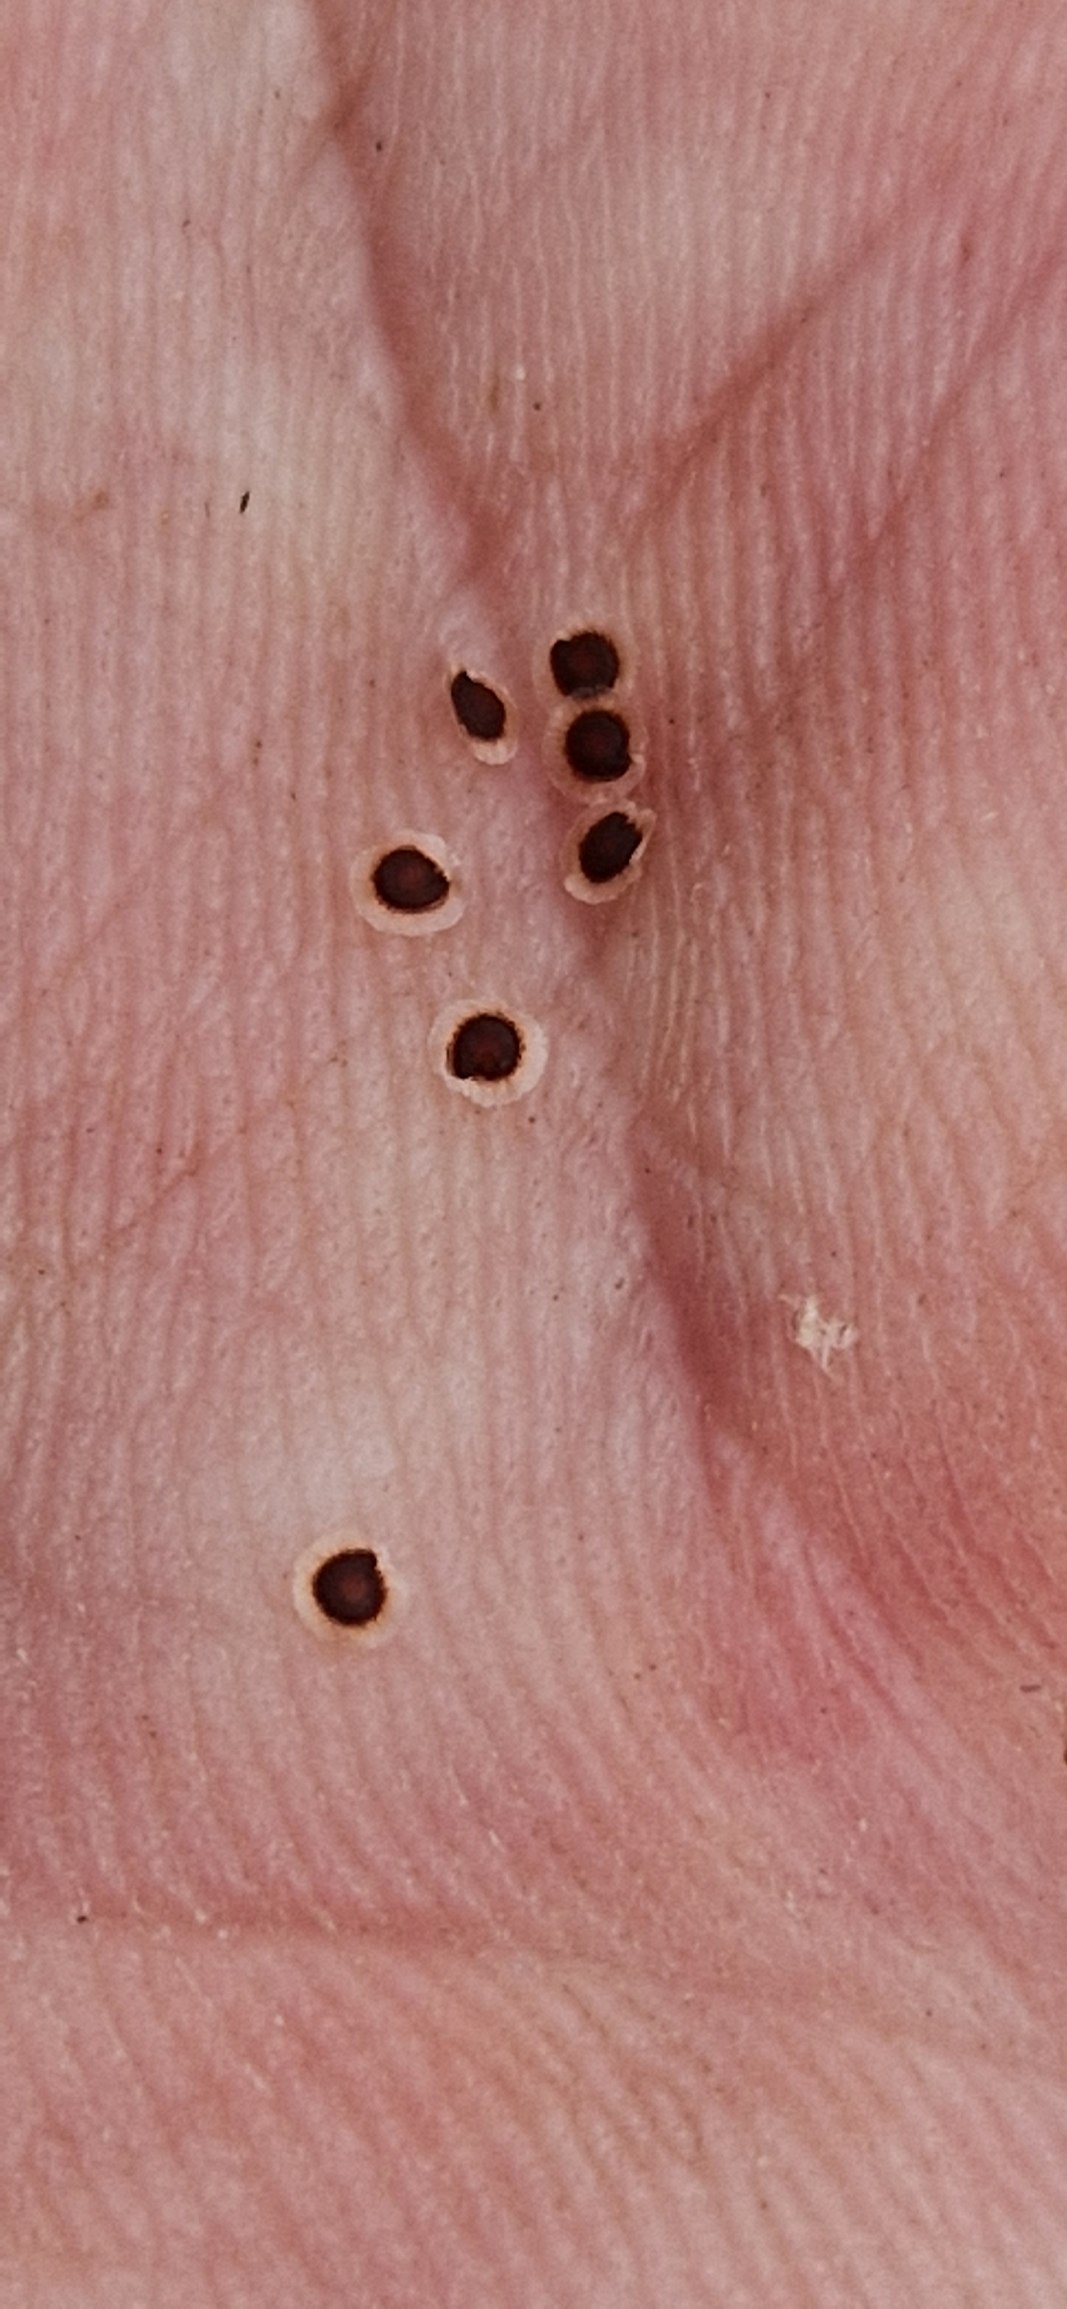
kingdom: Plantae
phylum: Tracheophyta
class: Magnoliopsida
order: Caryophyllales
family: Caryophyllaceae
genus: Spergularia
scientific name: Spergularia media
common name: Vingefrøet hindeknæ
